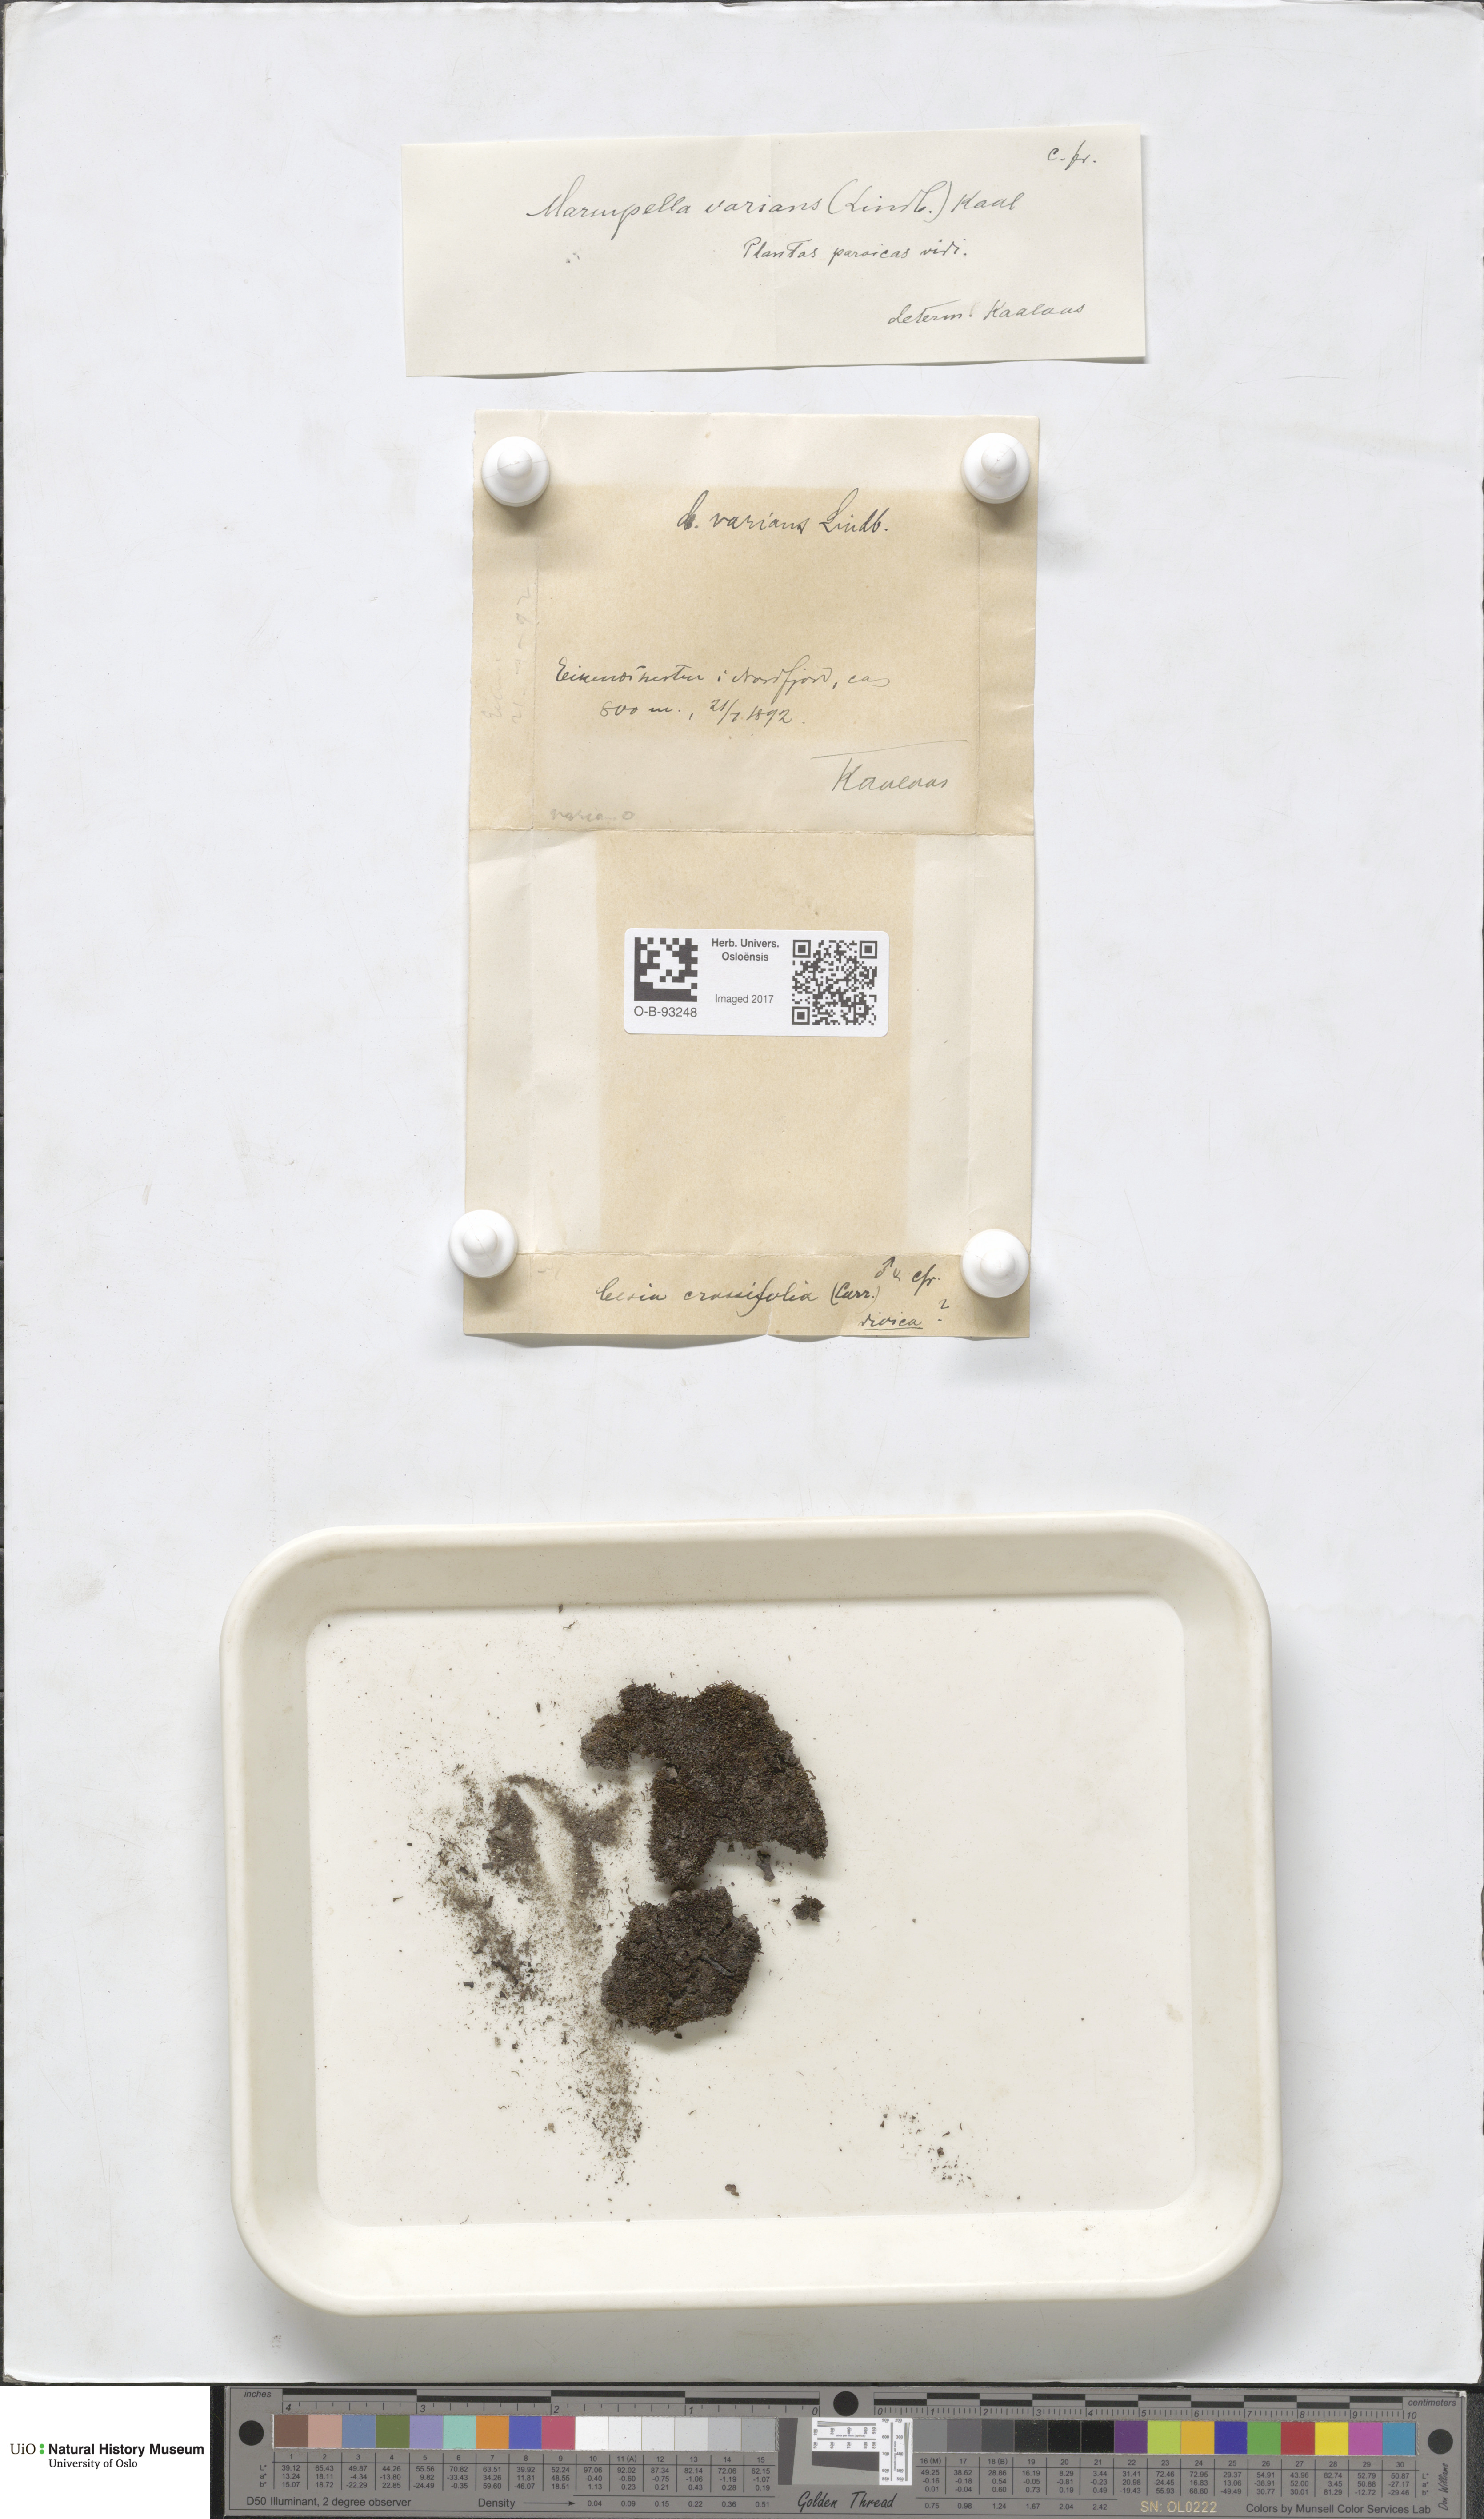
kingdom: Plantae
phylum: Marchantiophyta
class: Jungermanniopsida
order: Jungermanniales
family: Gymnomitriaceae
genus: Gymnomitrion
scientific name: Gymnomitrion brevissimum
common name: Snow rustwort
